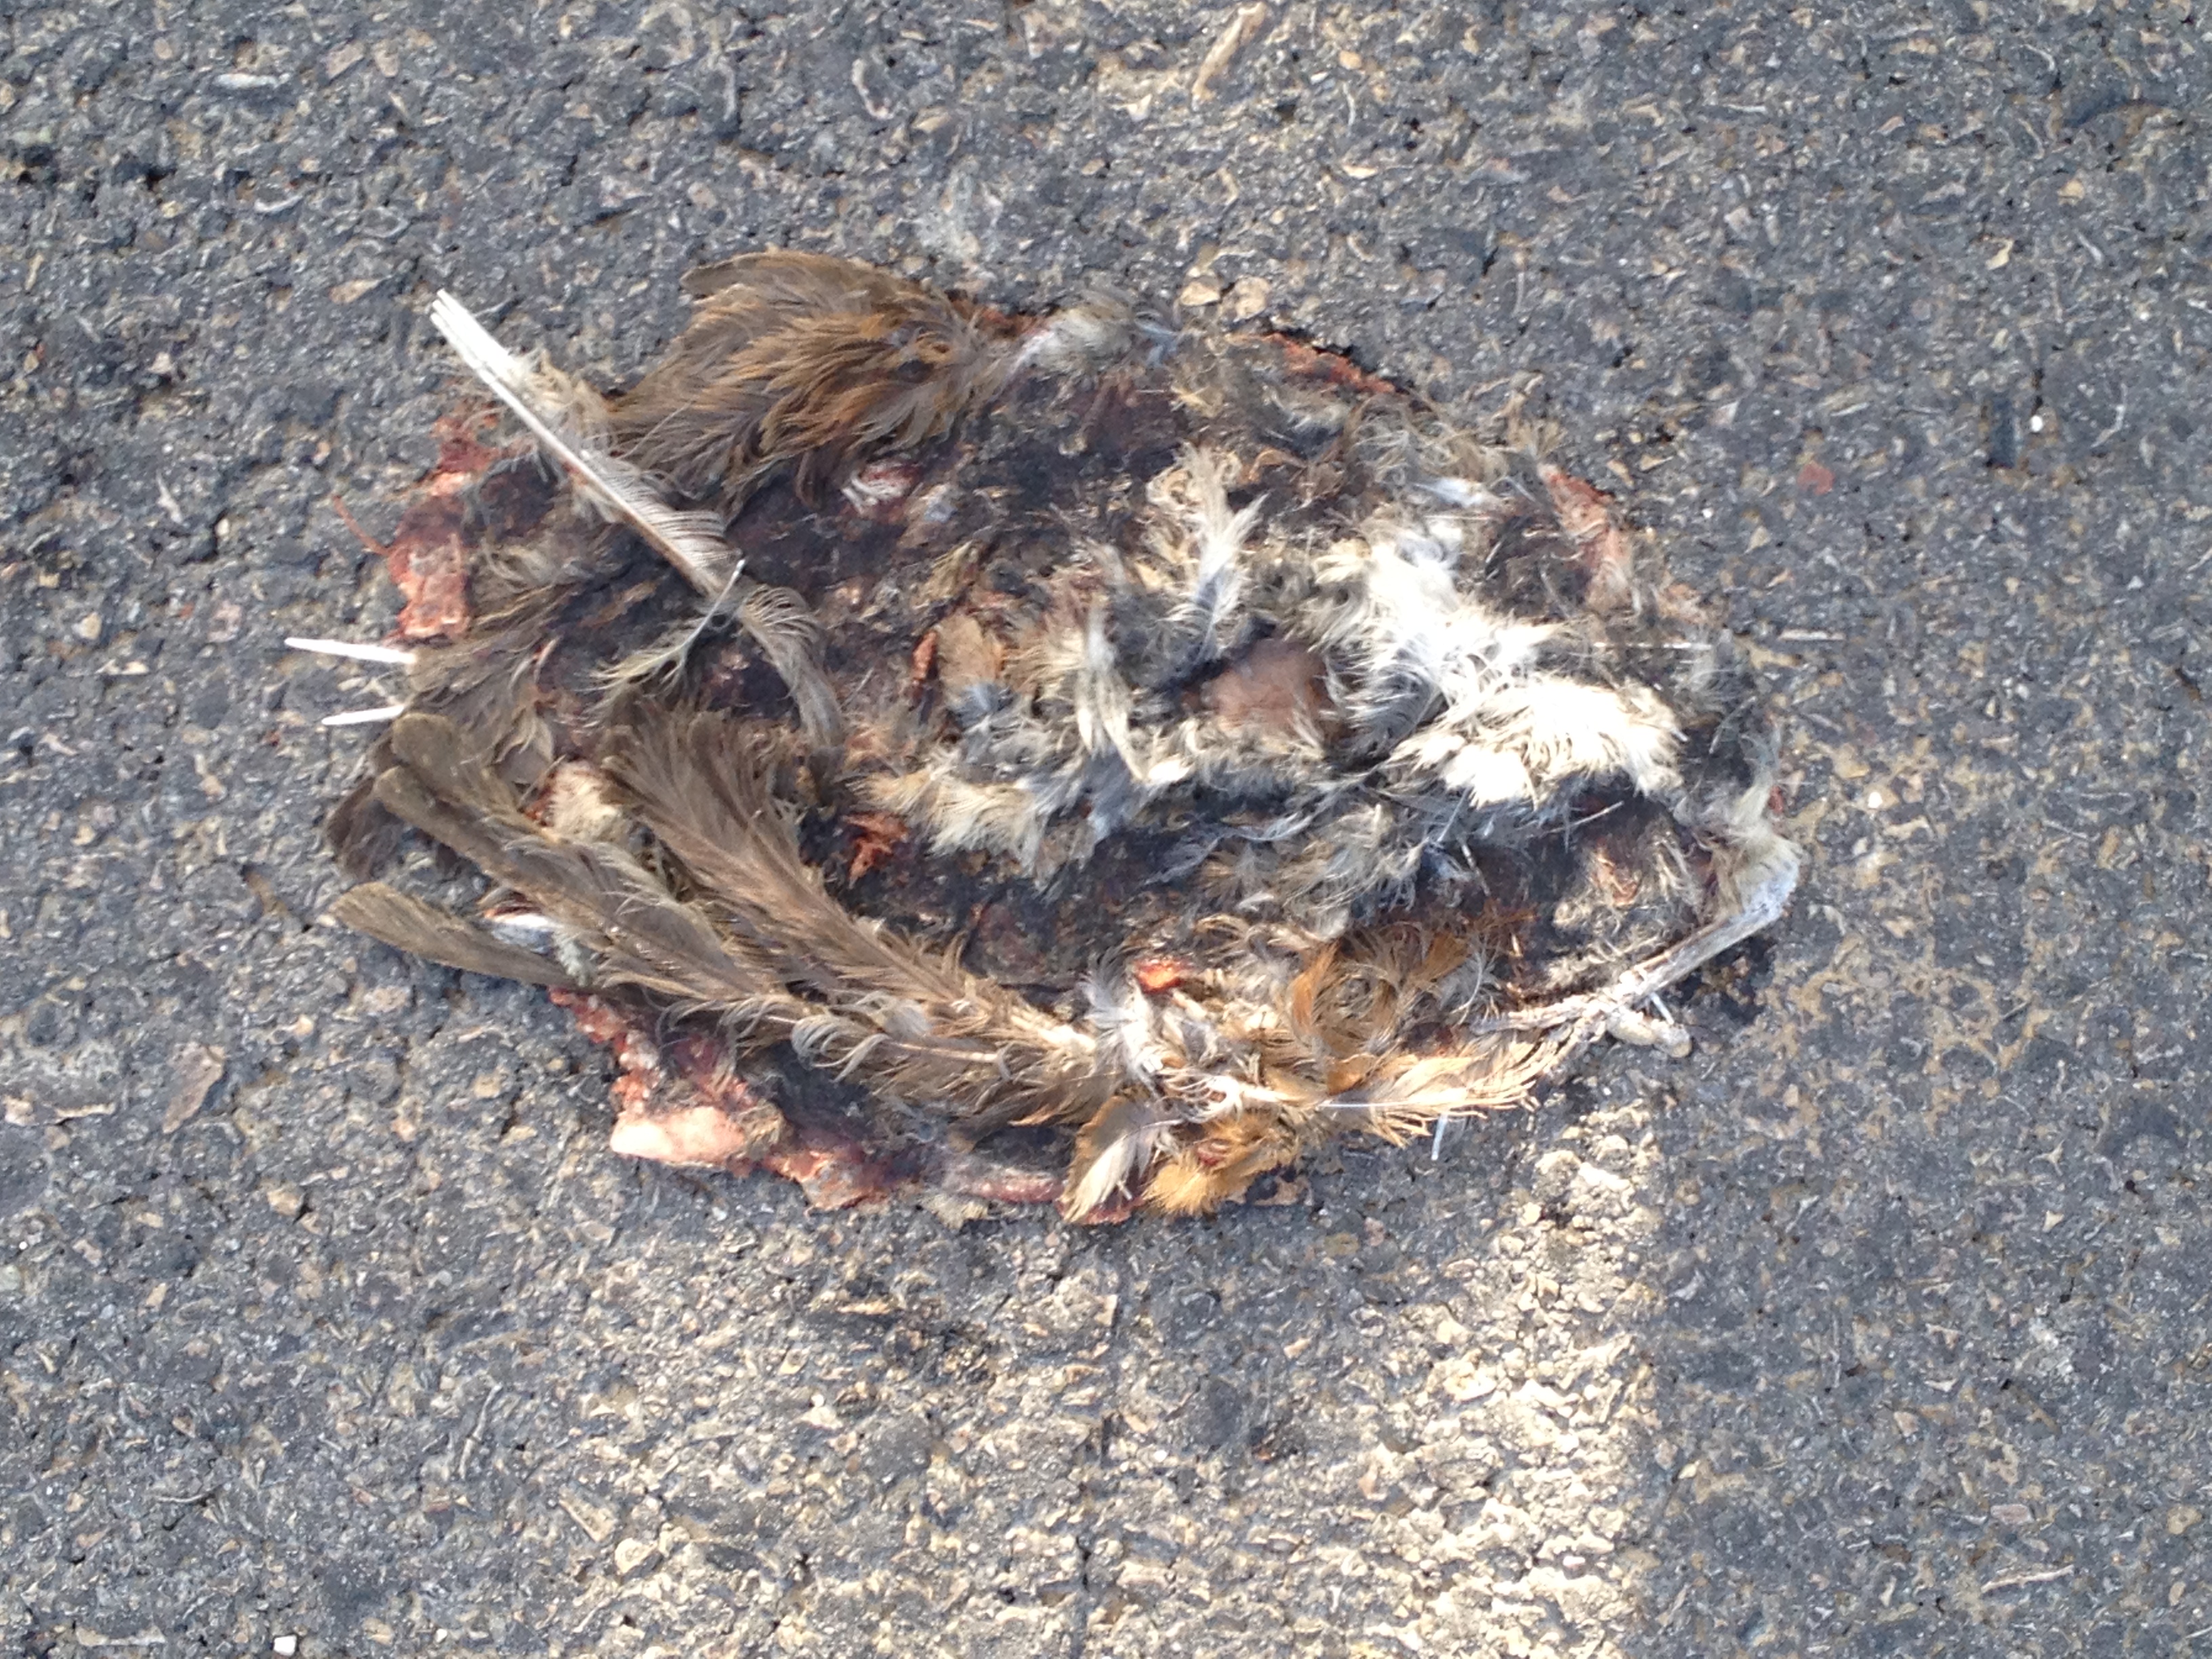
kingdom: Animalia
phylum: Chordata
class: Aves
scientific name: Aves
